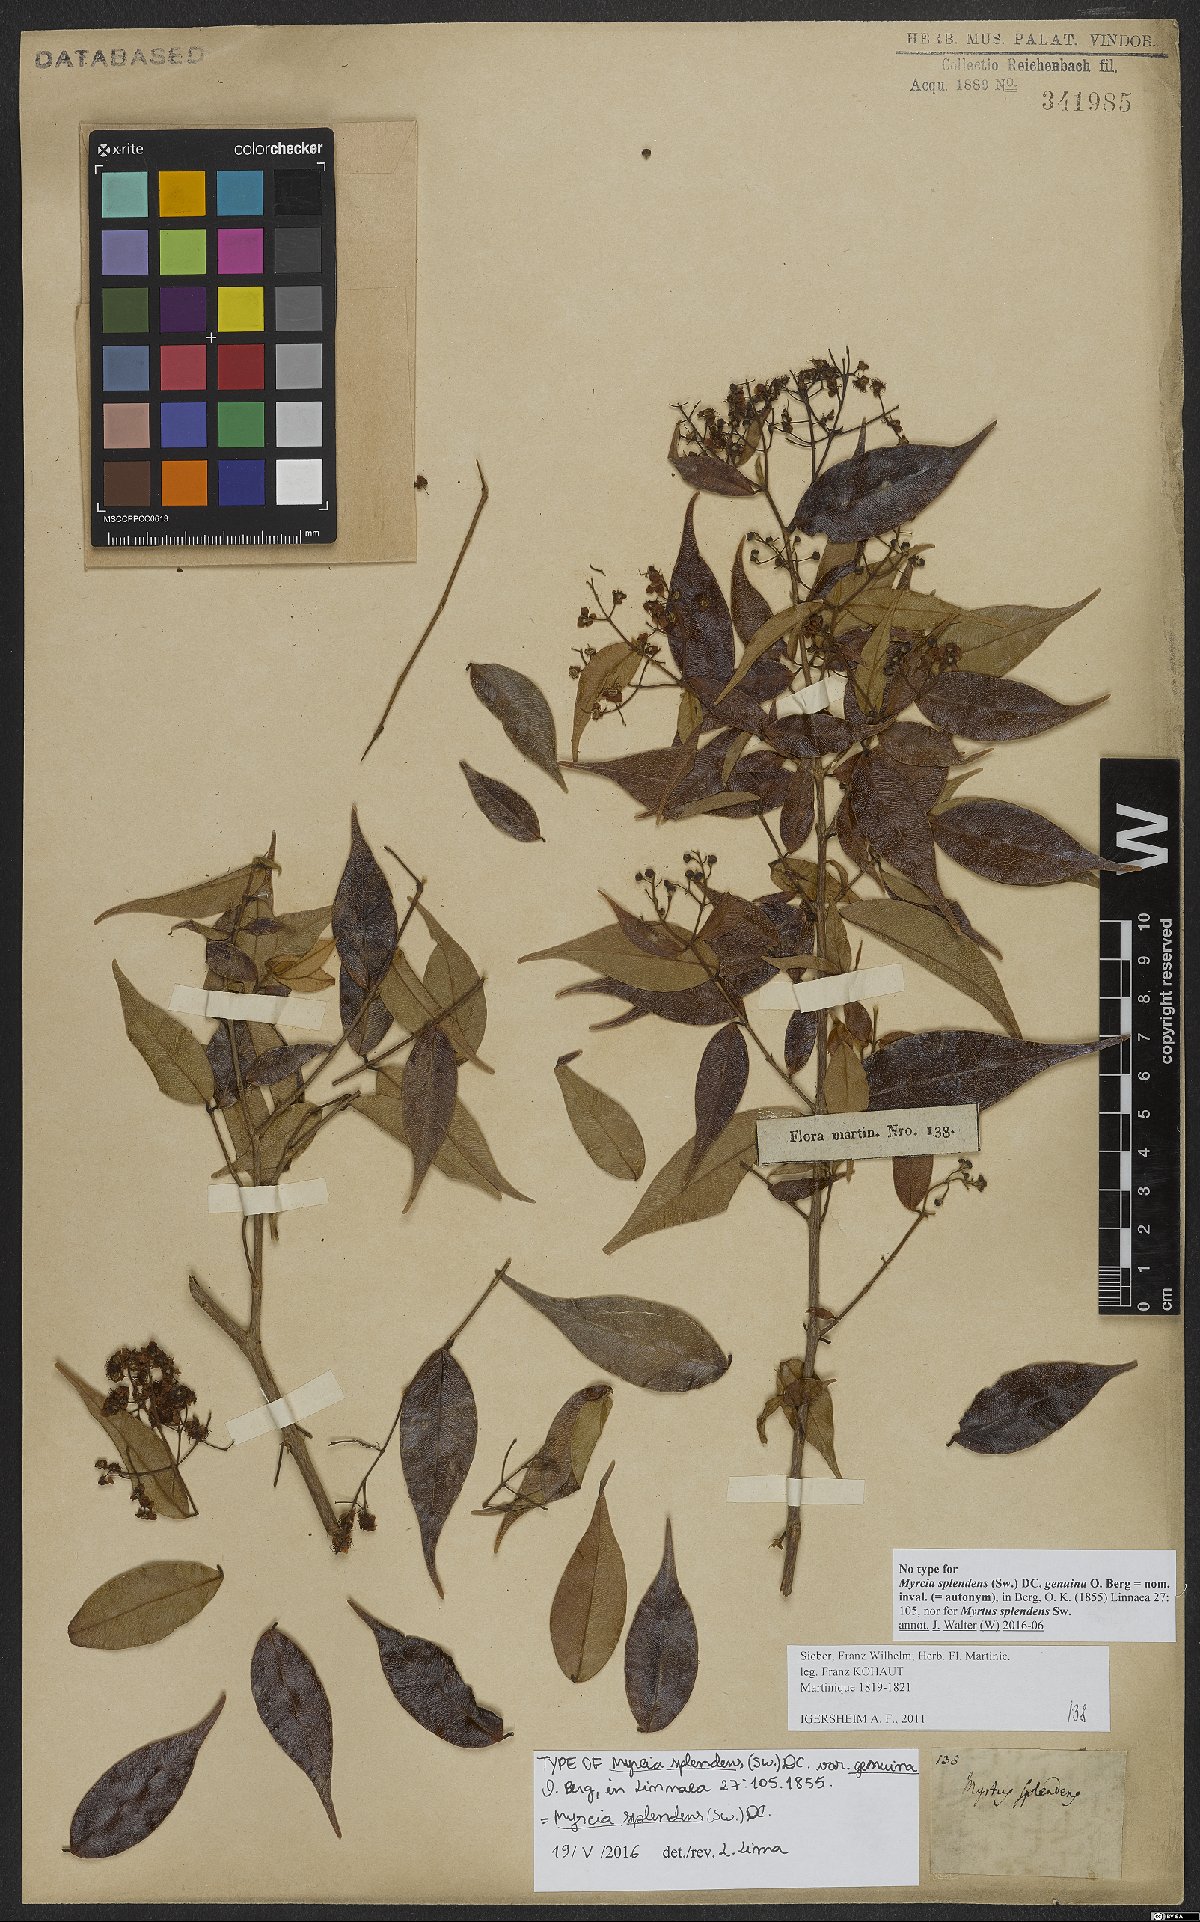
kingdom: Plantae
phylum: Tracheophyta
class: Magnoliopsida
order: Myrtales
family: Myrtaceae
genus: Myrcia
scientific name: Myrcia splendens
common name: Surinam cherry
